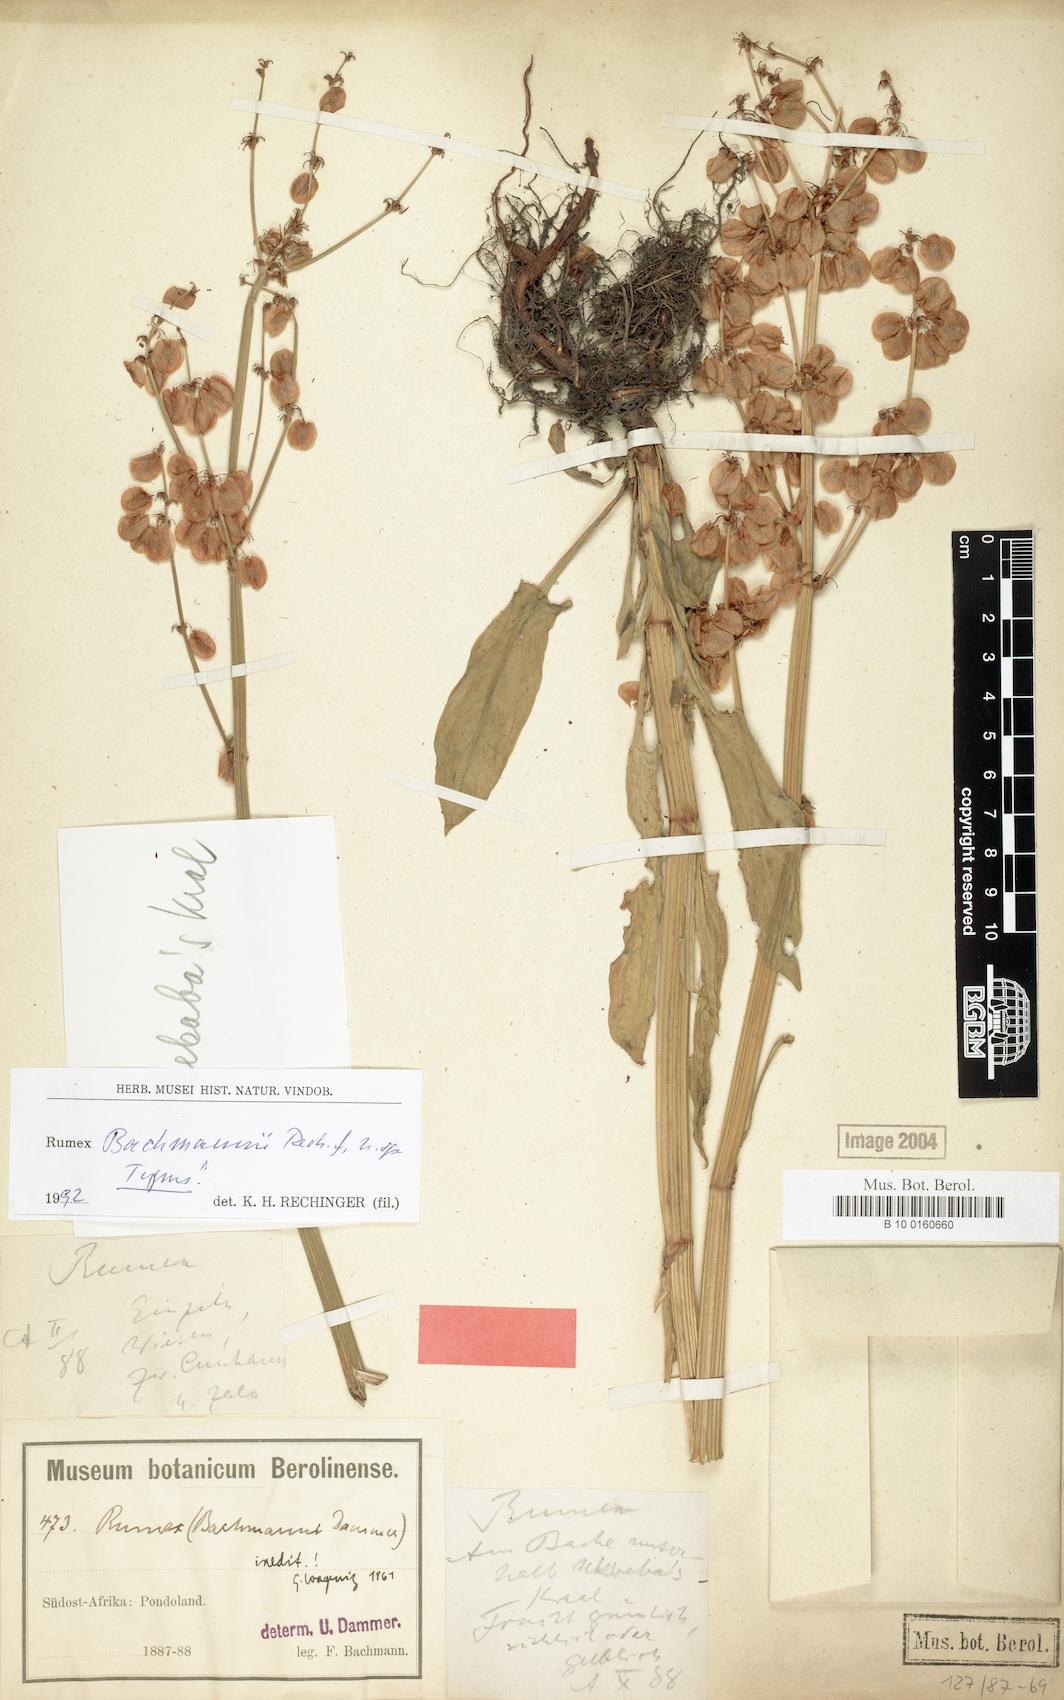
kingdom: Plantae
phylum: Tracheophyta
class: Magnoliopsida
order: Caryophyllales
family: Polygonaceae
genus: Rumex
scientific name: Rumex
